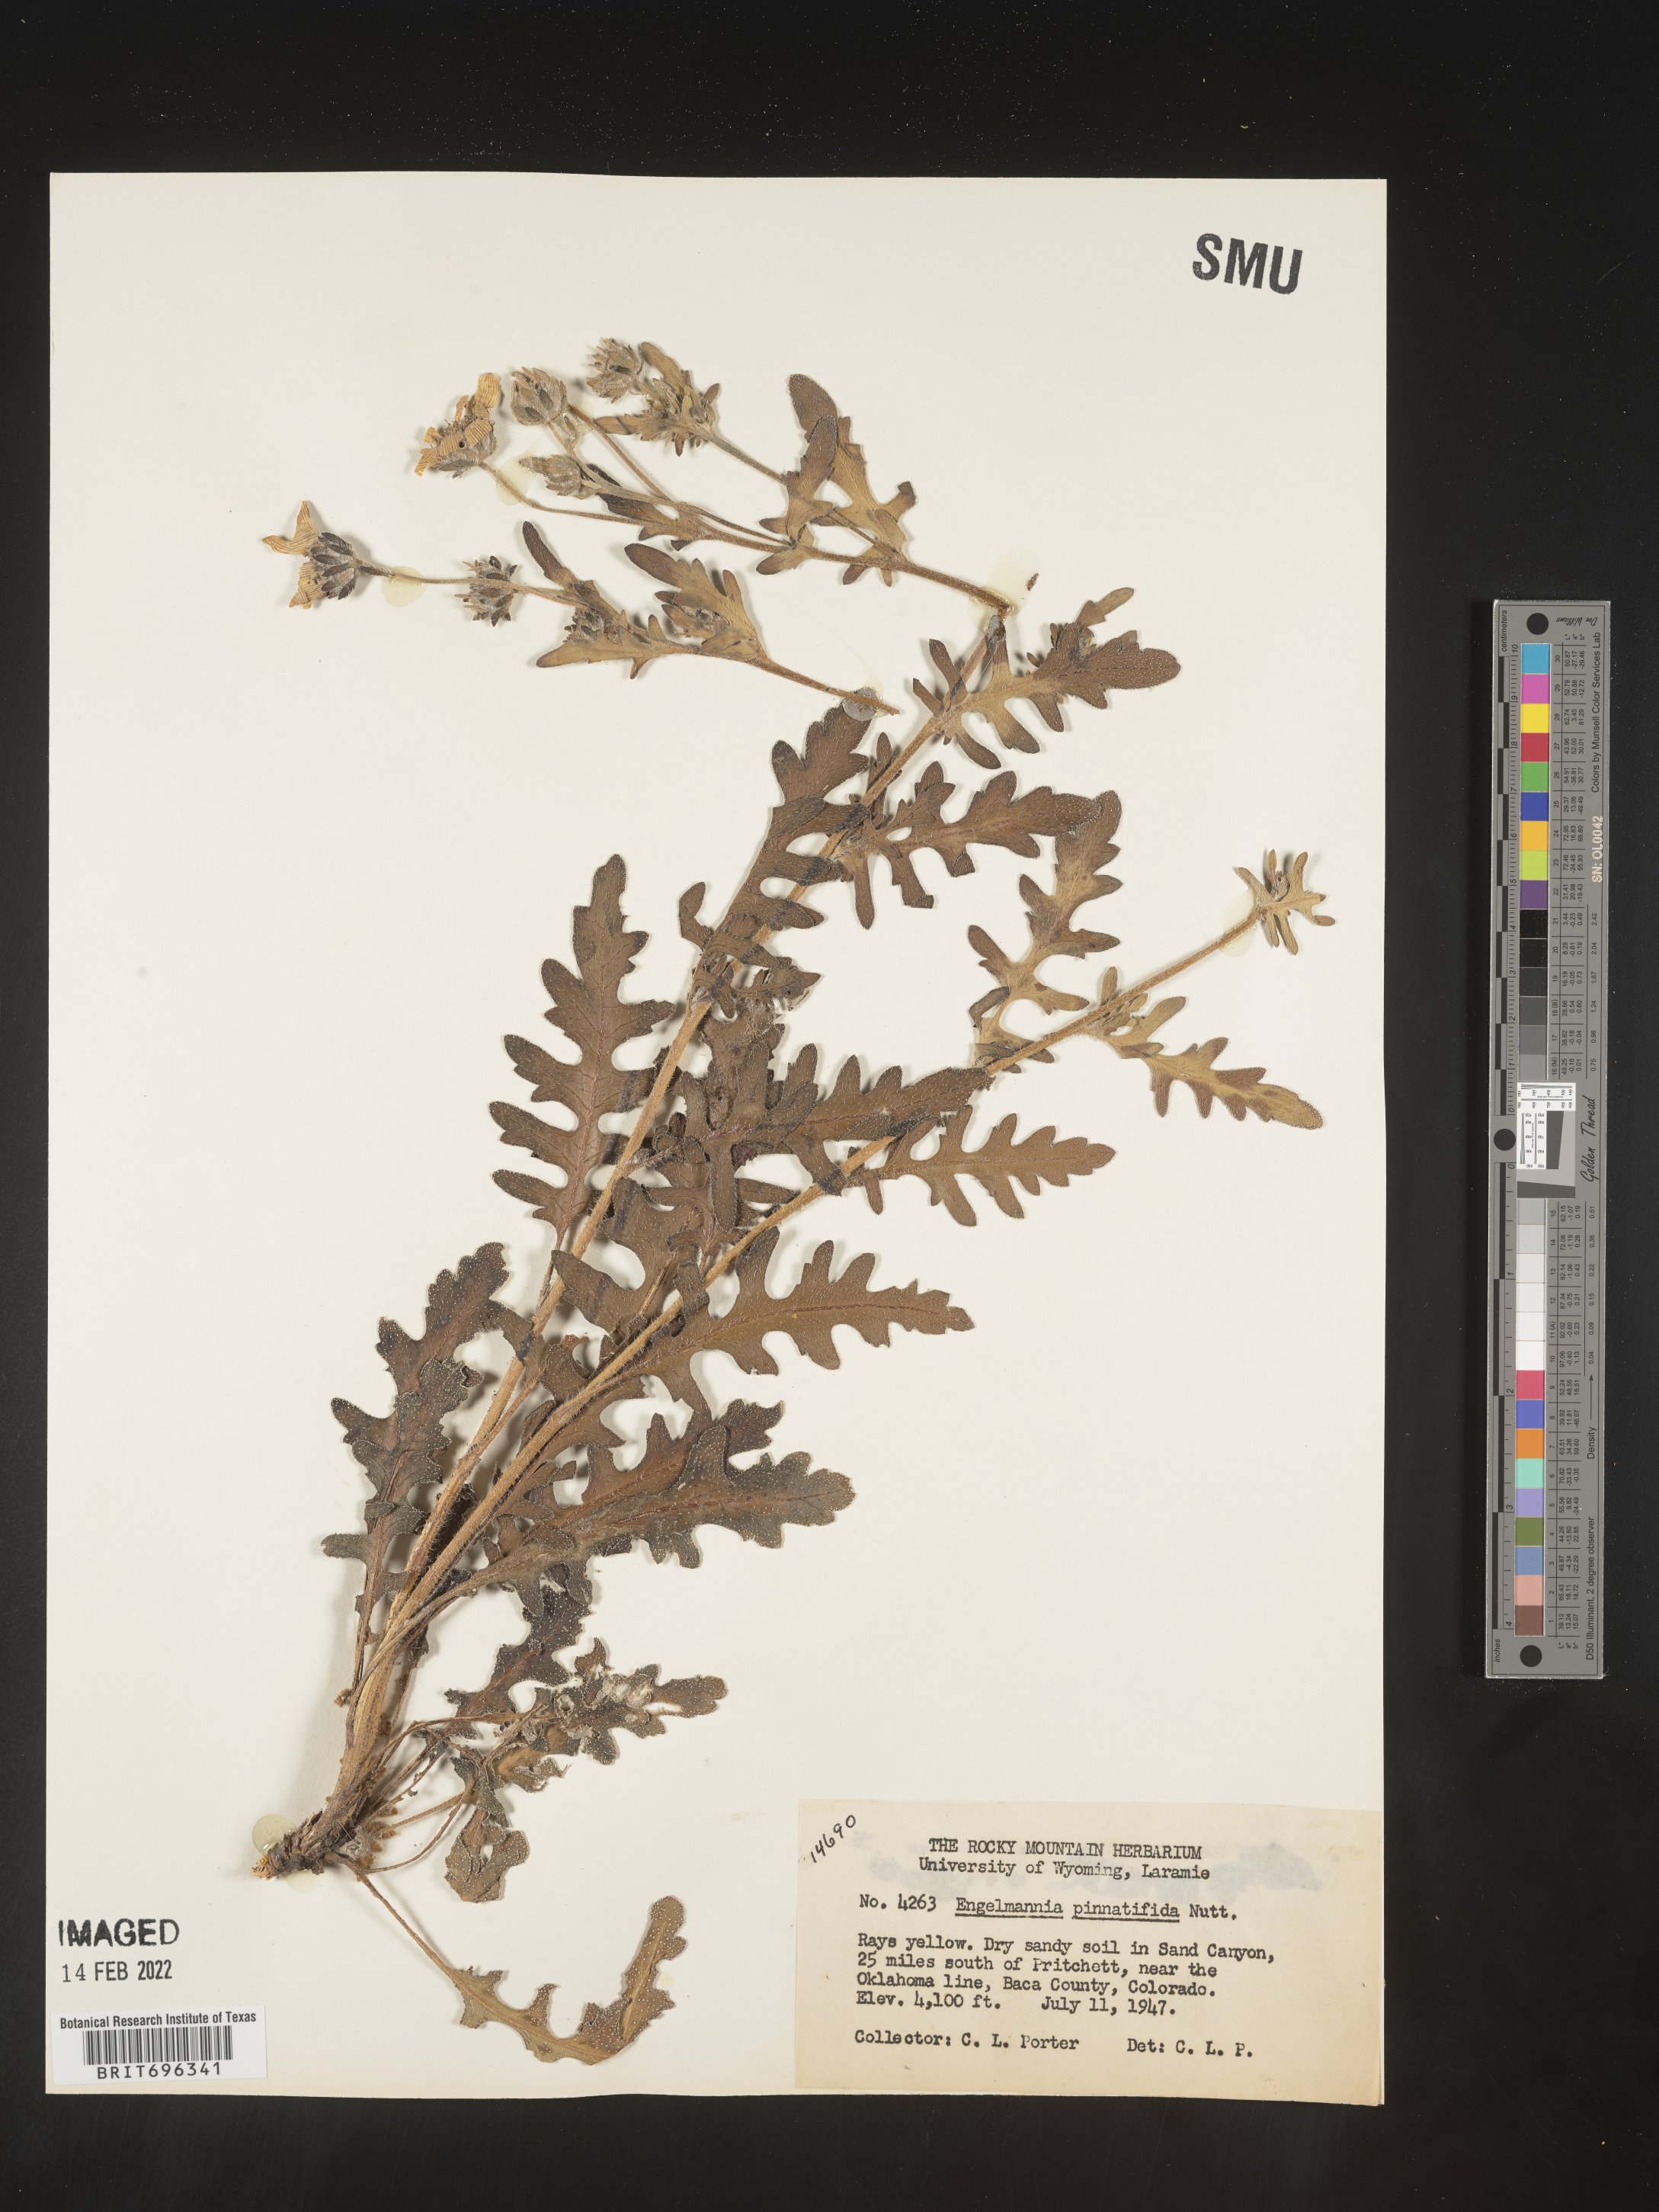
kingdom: Plantae
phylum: Tracheophyta
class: Magnoliopsida
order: Asterales
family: Asteraceae
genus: Engelmannia
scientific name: Engelmannia peristenia
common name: Engelmann's daisy
